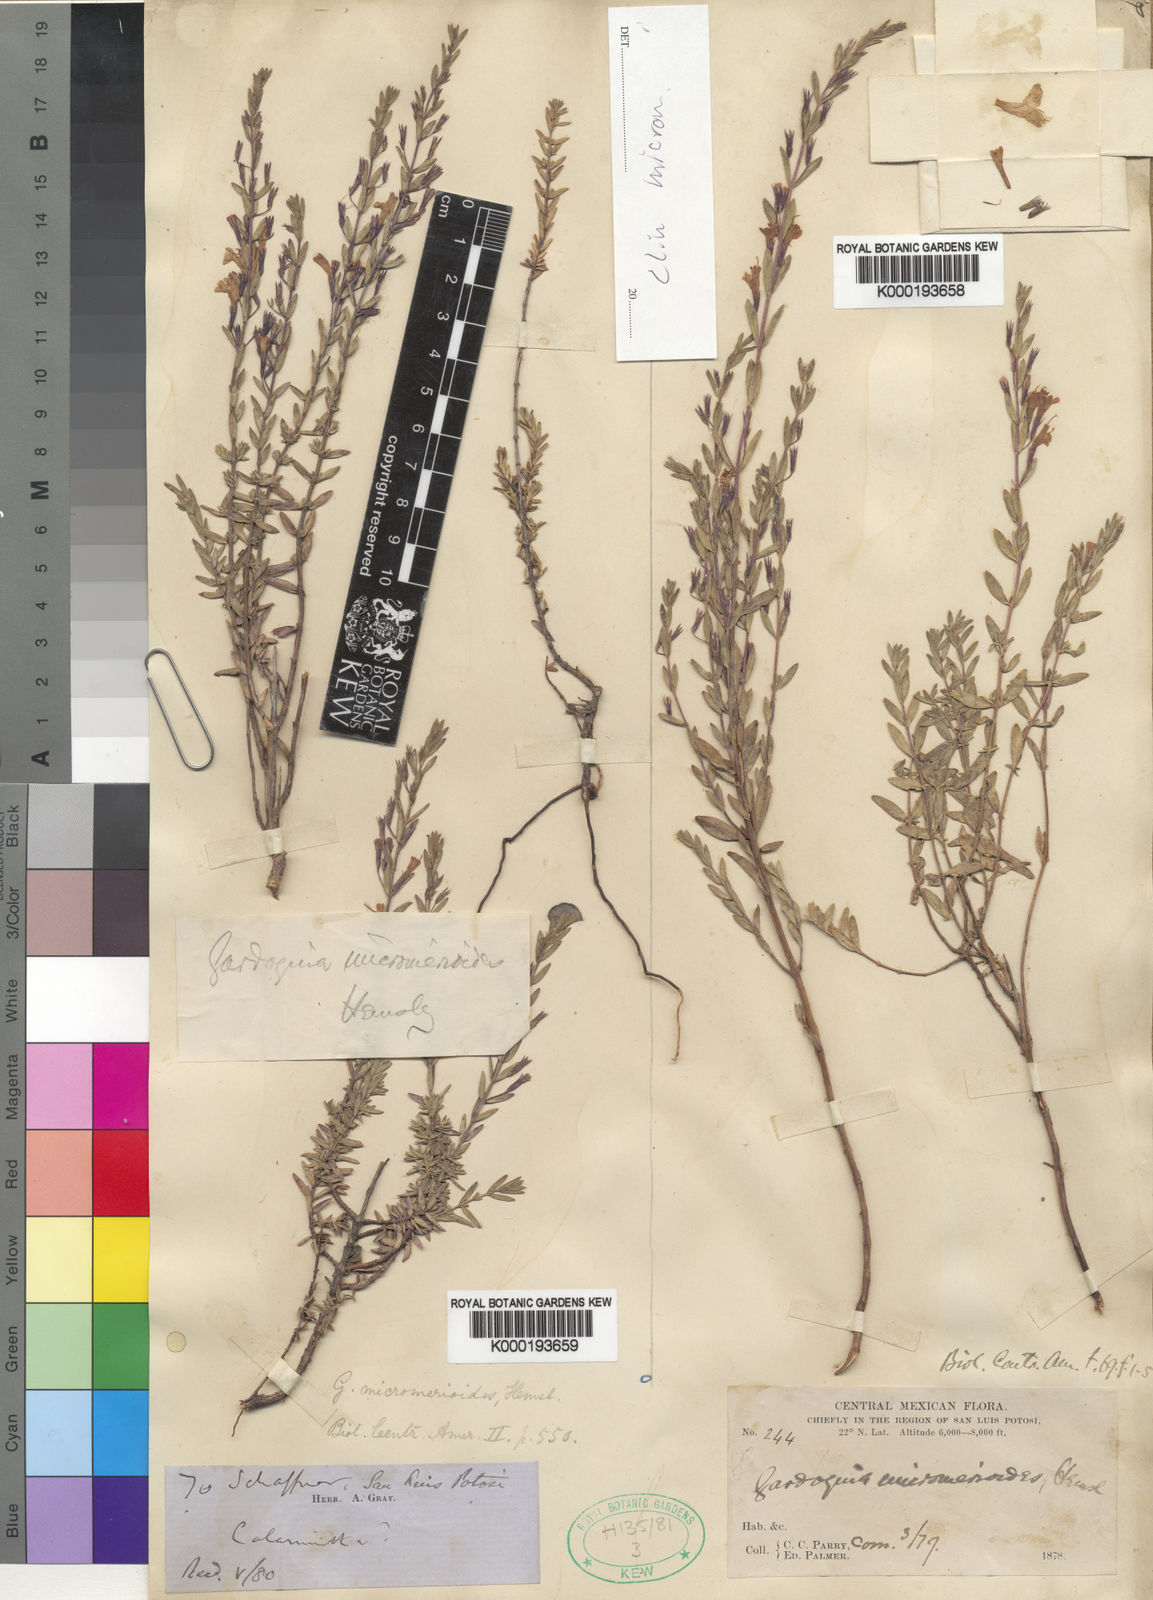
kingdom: Plantae
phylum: Tracheophyta
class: Magnoliopsida
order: Lamiales
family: Lamiaceae
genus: Clinopodium
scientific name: Clinopodium micromerioides
